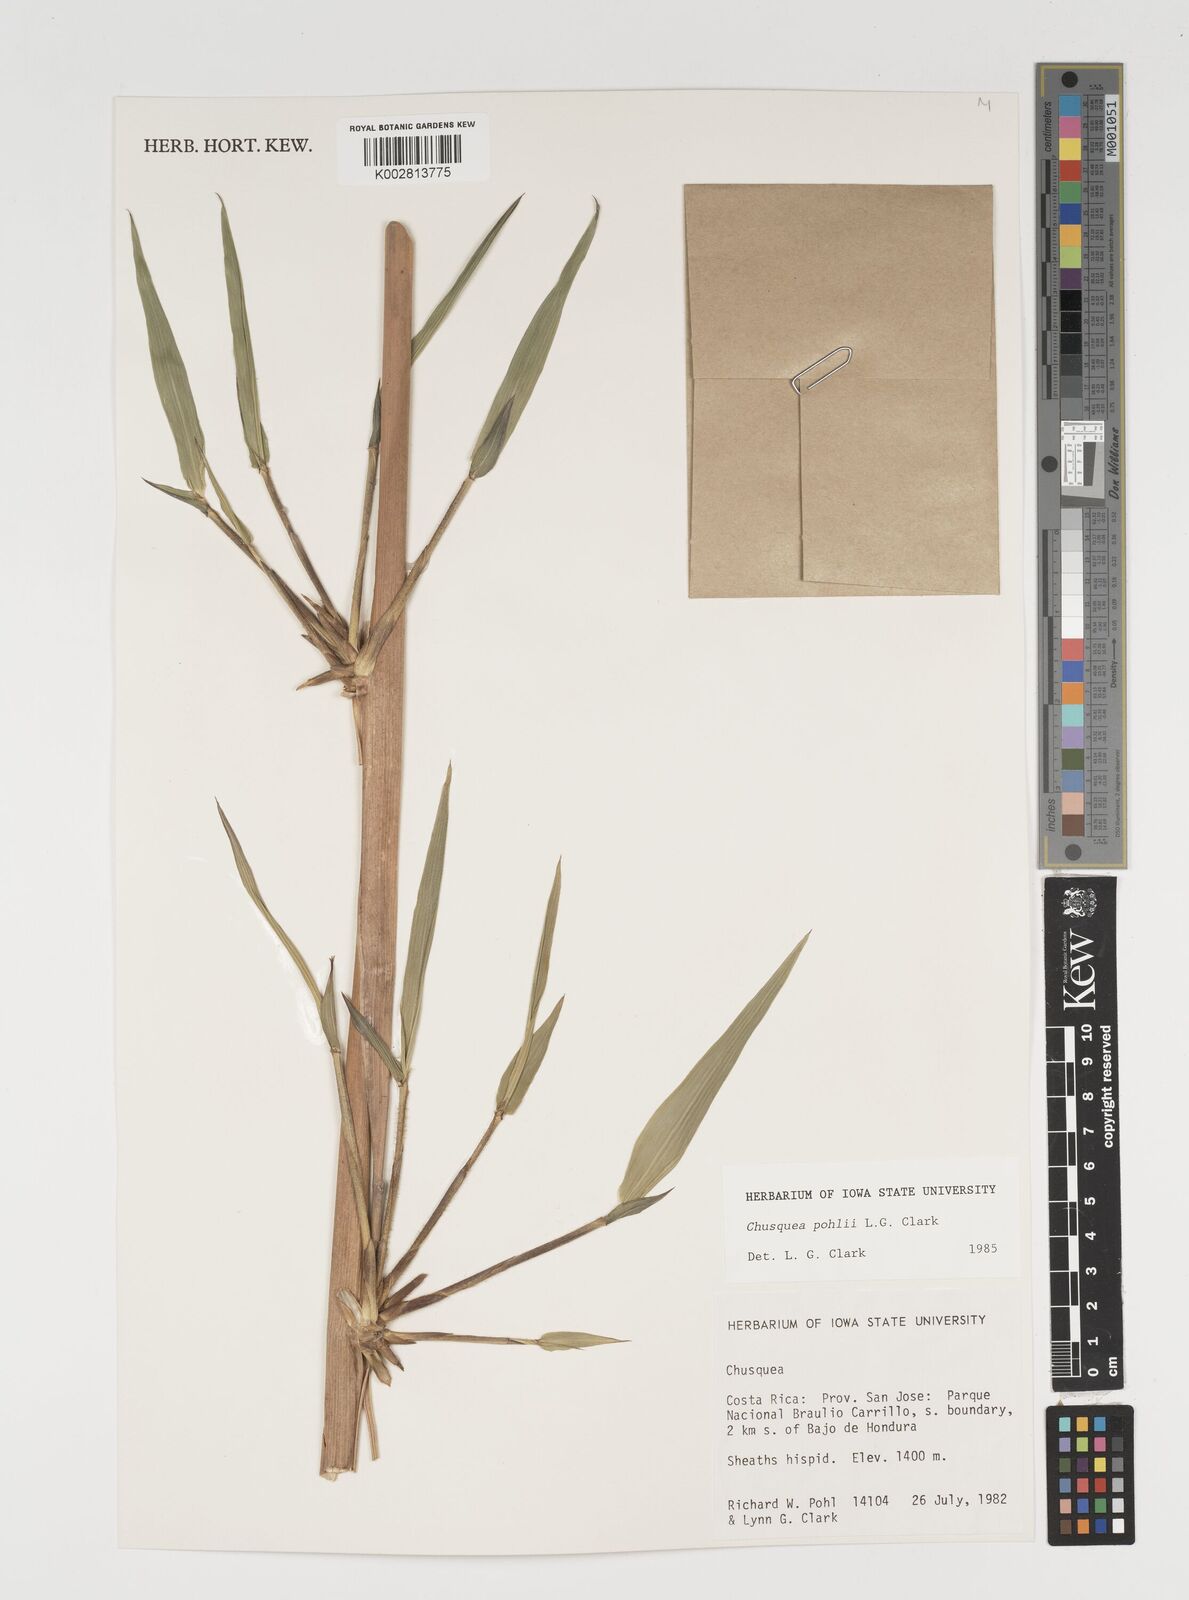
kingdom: Plantae
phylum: Tracheophyta
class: Liliopsida
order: Poales
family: Poaceae
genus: Chusquea
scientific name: Chusquea pohlii
